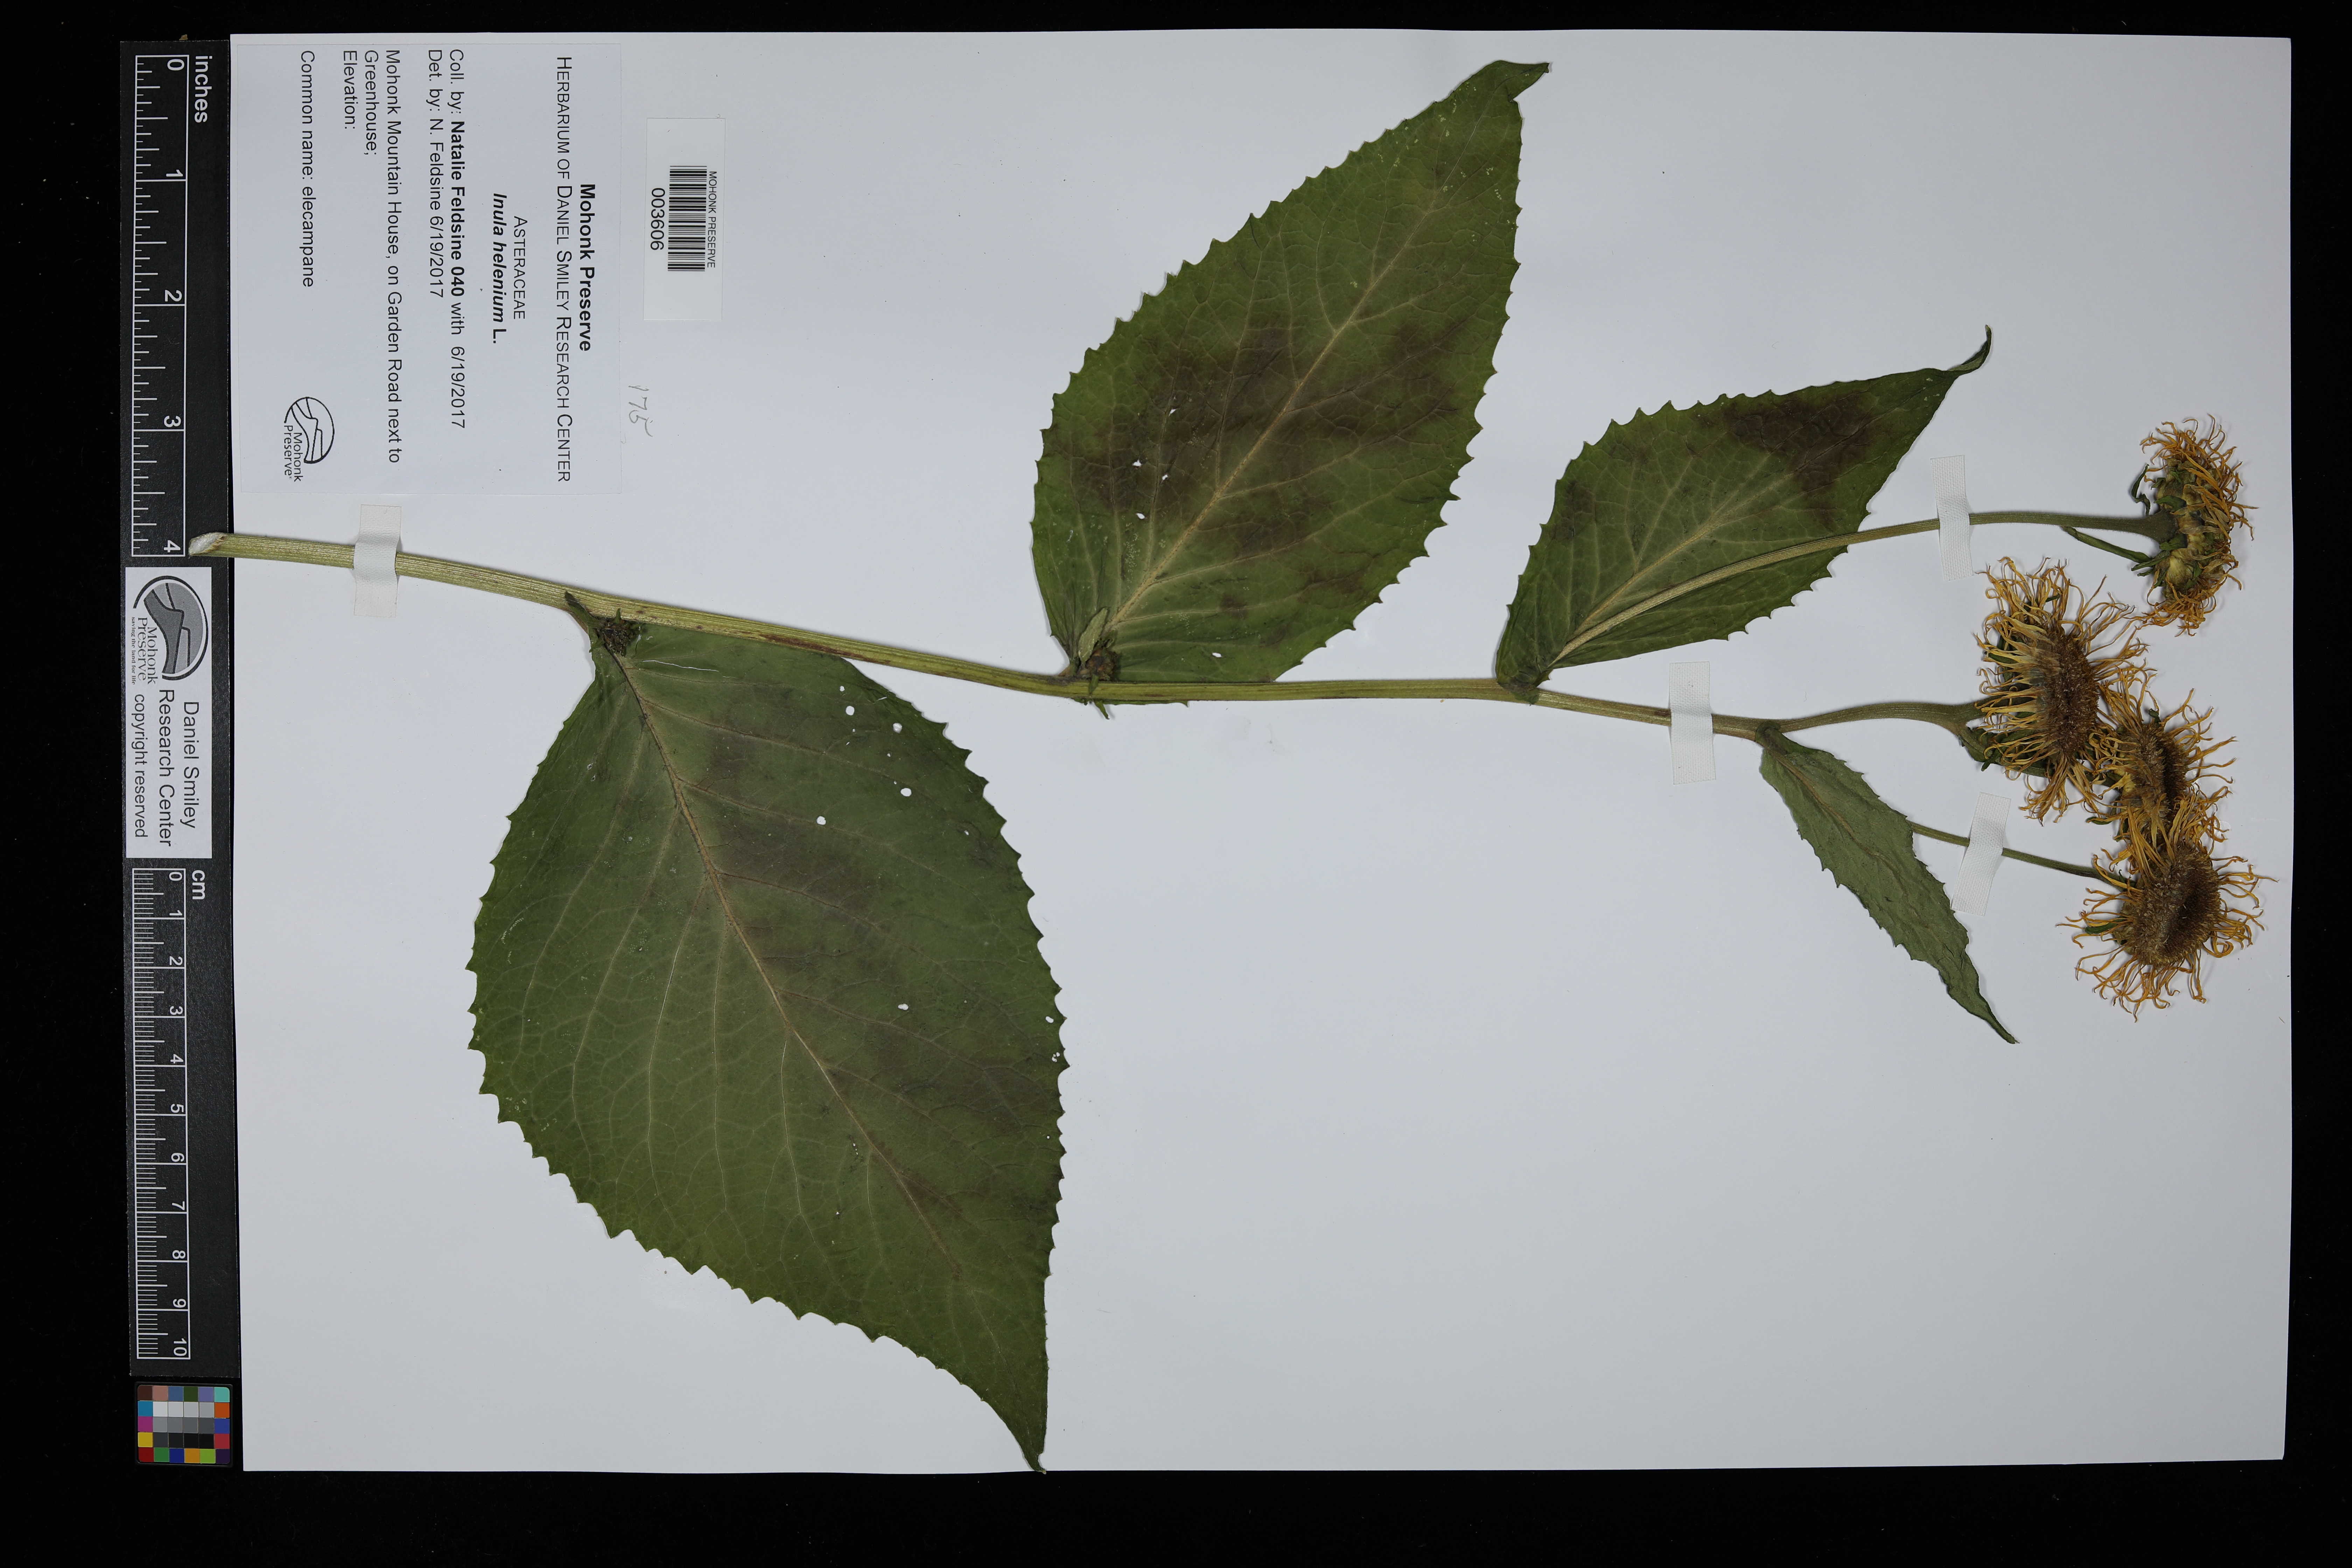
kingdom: Plantae
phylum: Tracheophyta
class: Magnoliopsida
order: Asterales
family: Asteraceae
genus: Inula
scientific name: Inula helenium
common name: Elecampane
